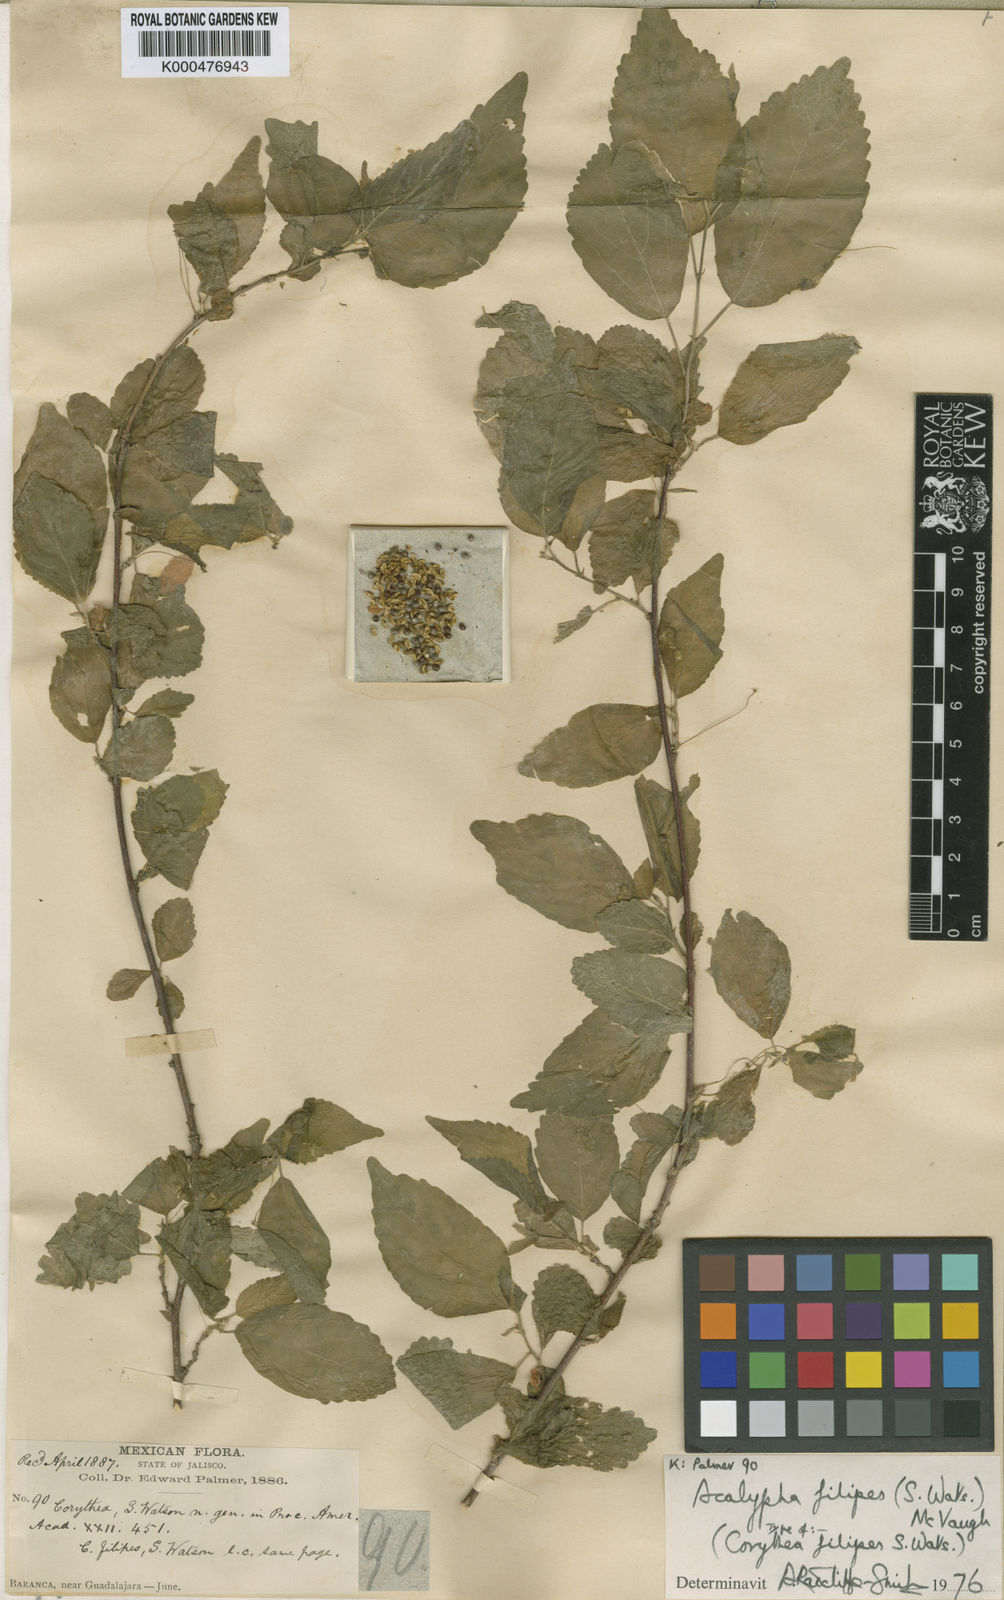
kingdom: Plantae
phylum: Tracheophyta
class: Magnoliopsida
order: Malpighiales
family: Euphorbiaceae
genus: Acalypha
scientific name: Acalypha filipes
